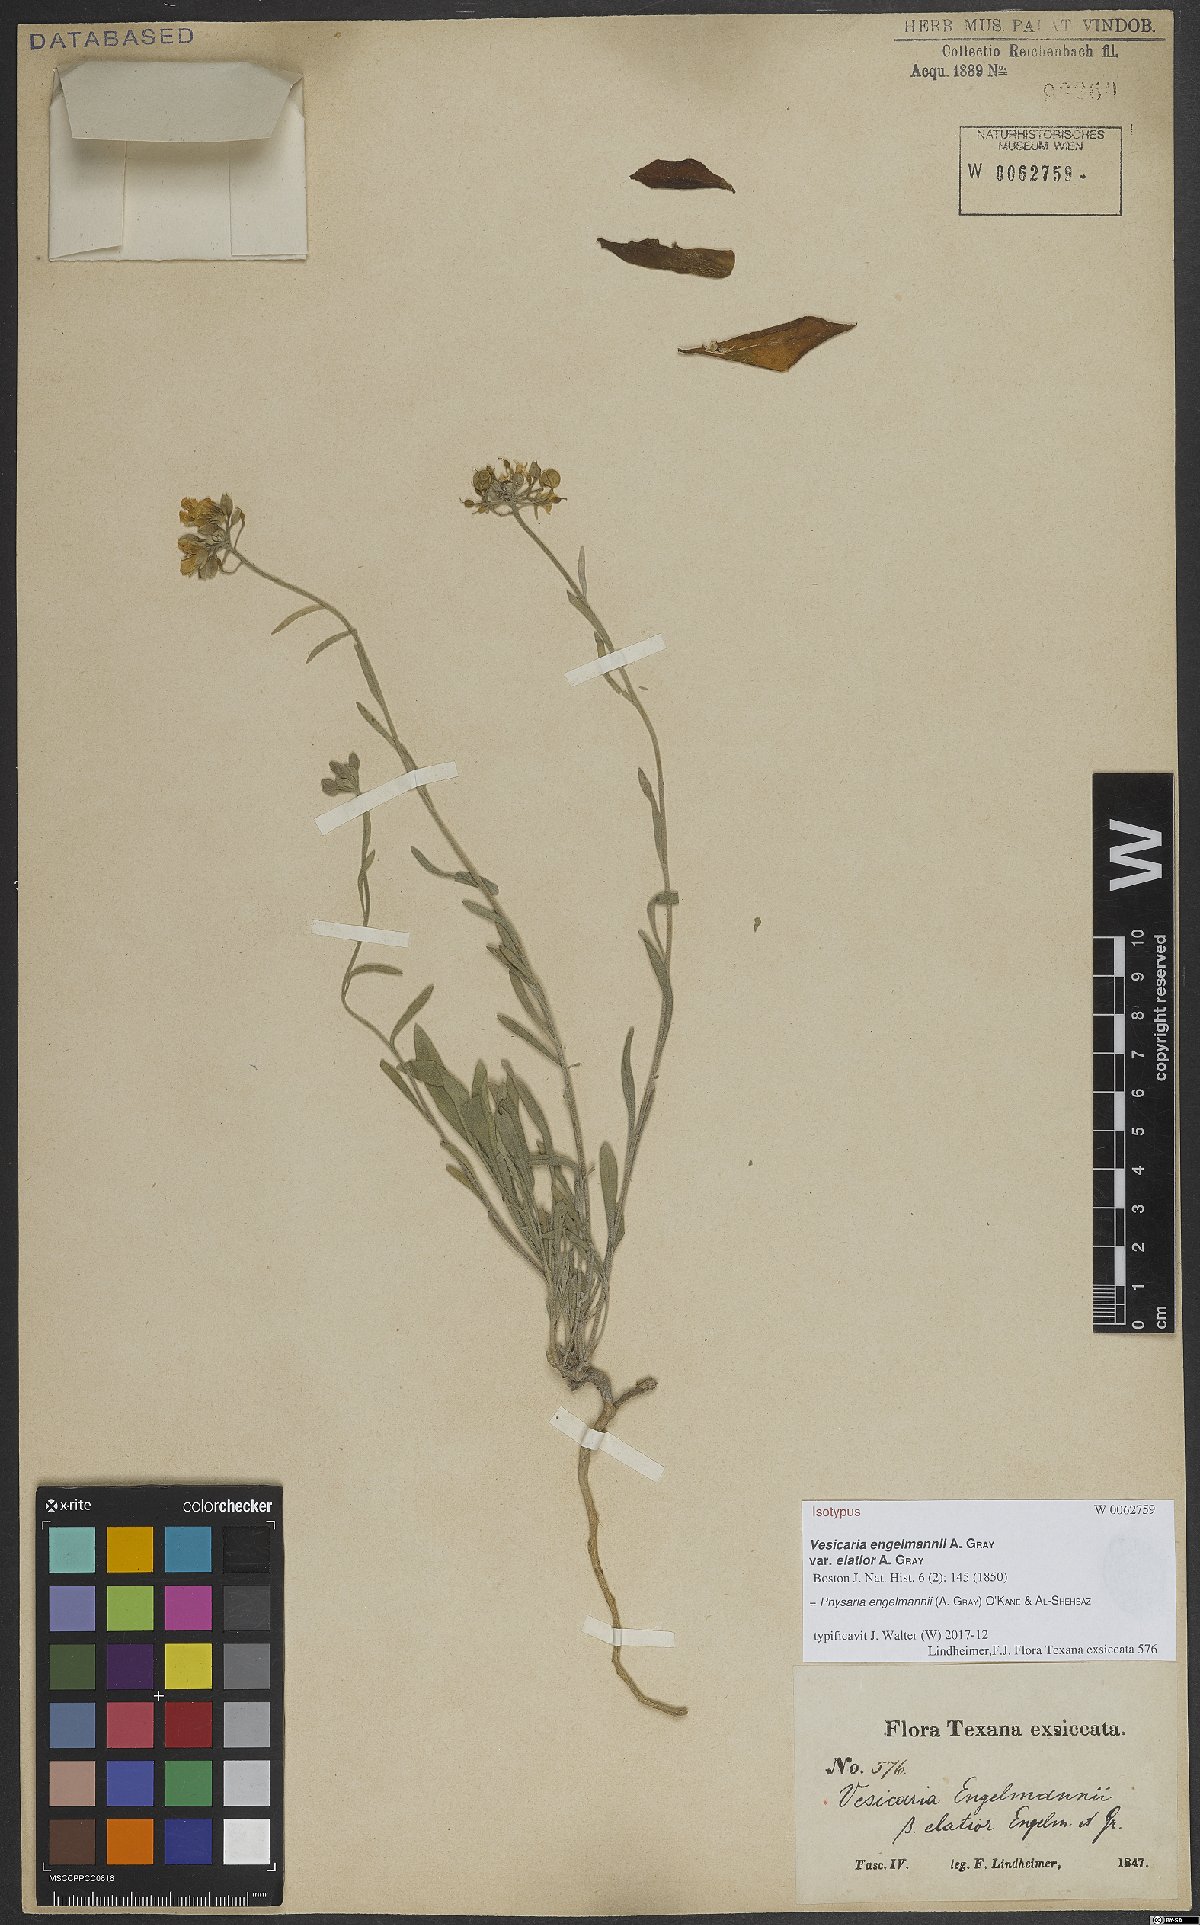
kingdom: Plantae
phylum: Tracheophyta
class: Magnoliopsida
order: Brassicales
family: Brassicaceae
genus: Physaria
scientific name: Physaria engelmannii
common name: Engelmann's bladderpod
